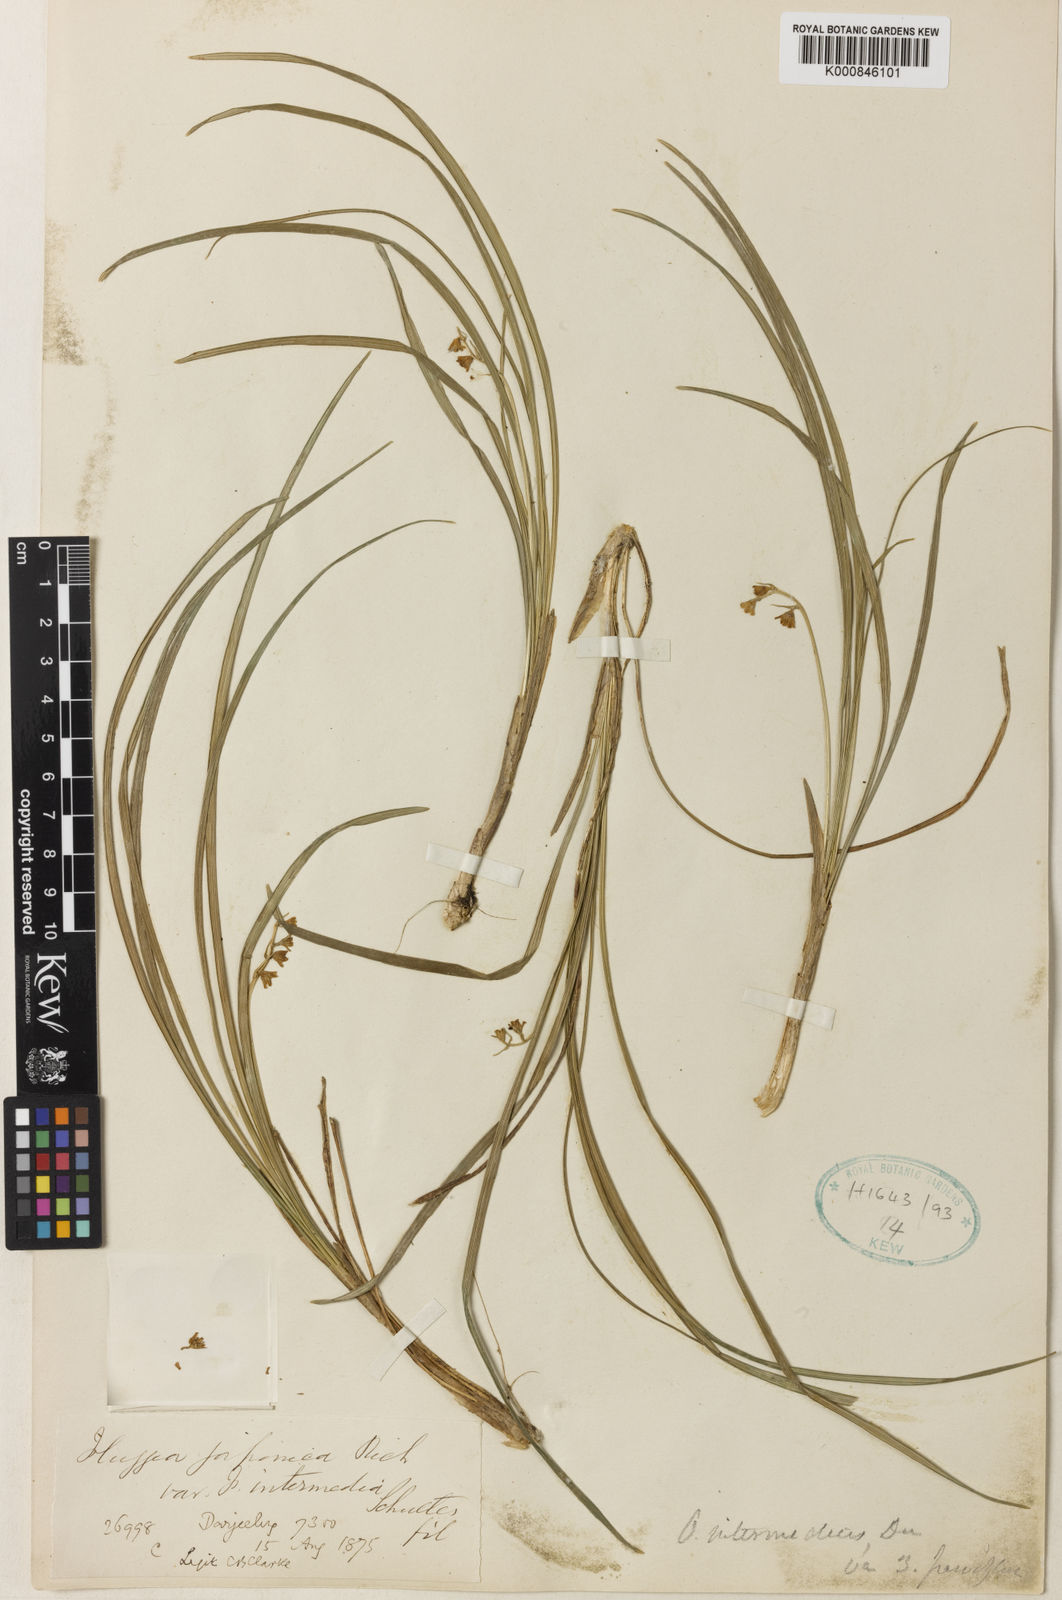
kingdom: Plantae
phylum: Tracheophyta
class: Liliopsida
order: Asparagales
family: Asparagaceae
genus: Ophiopogon
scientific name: Ophiopogon
